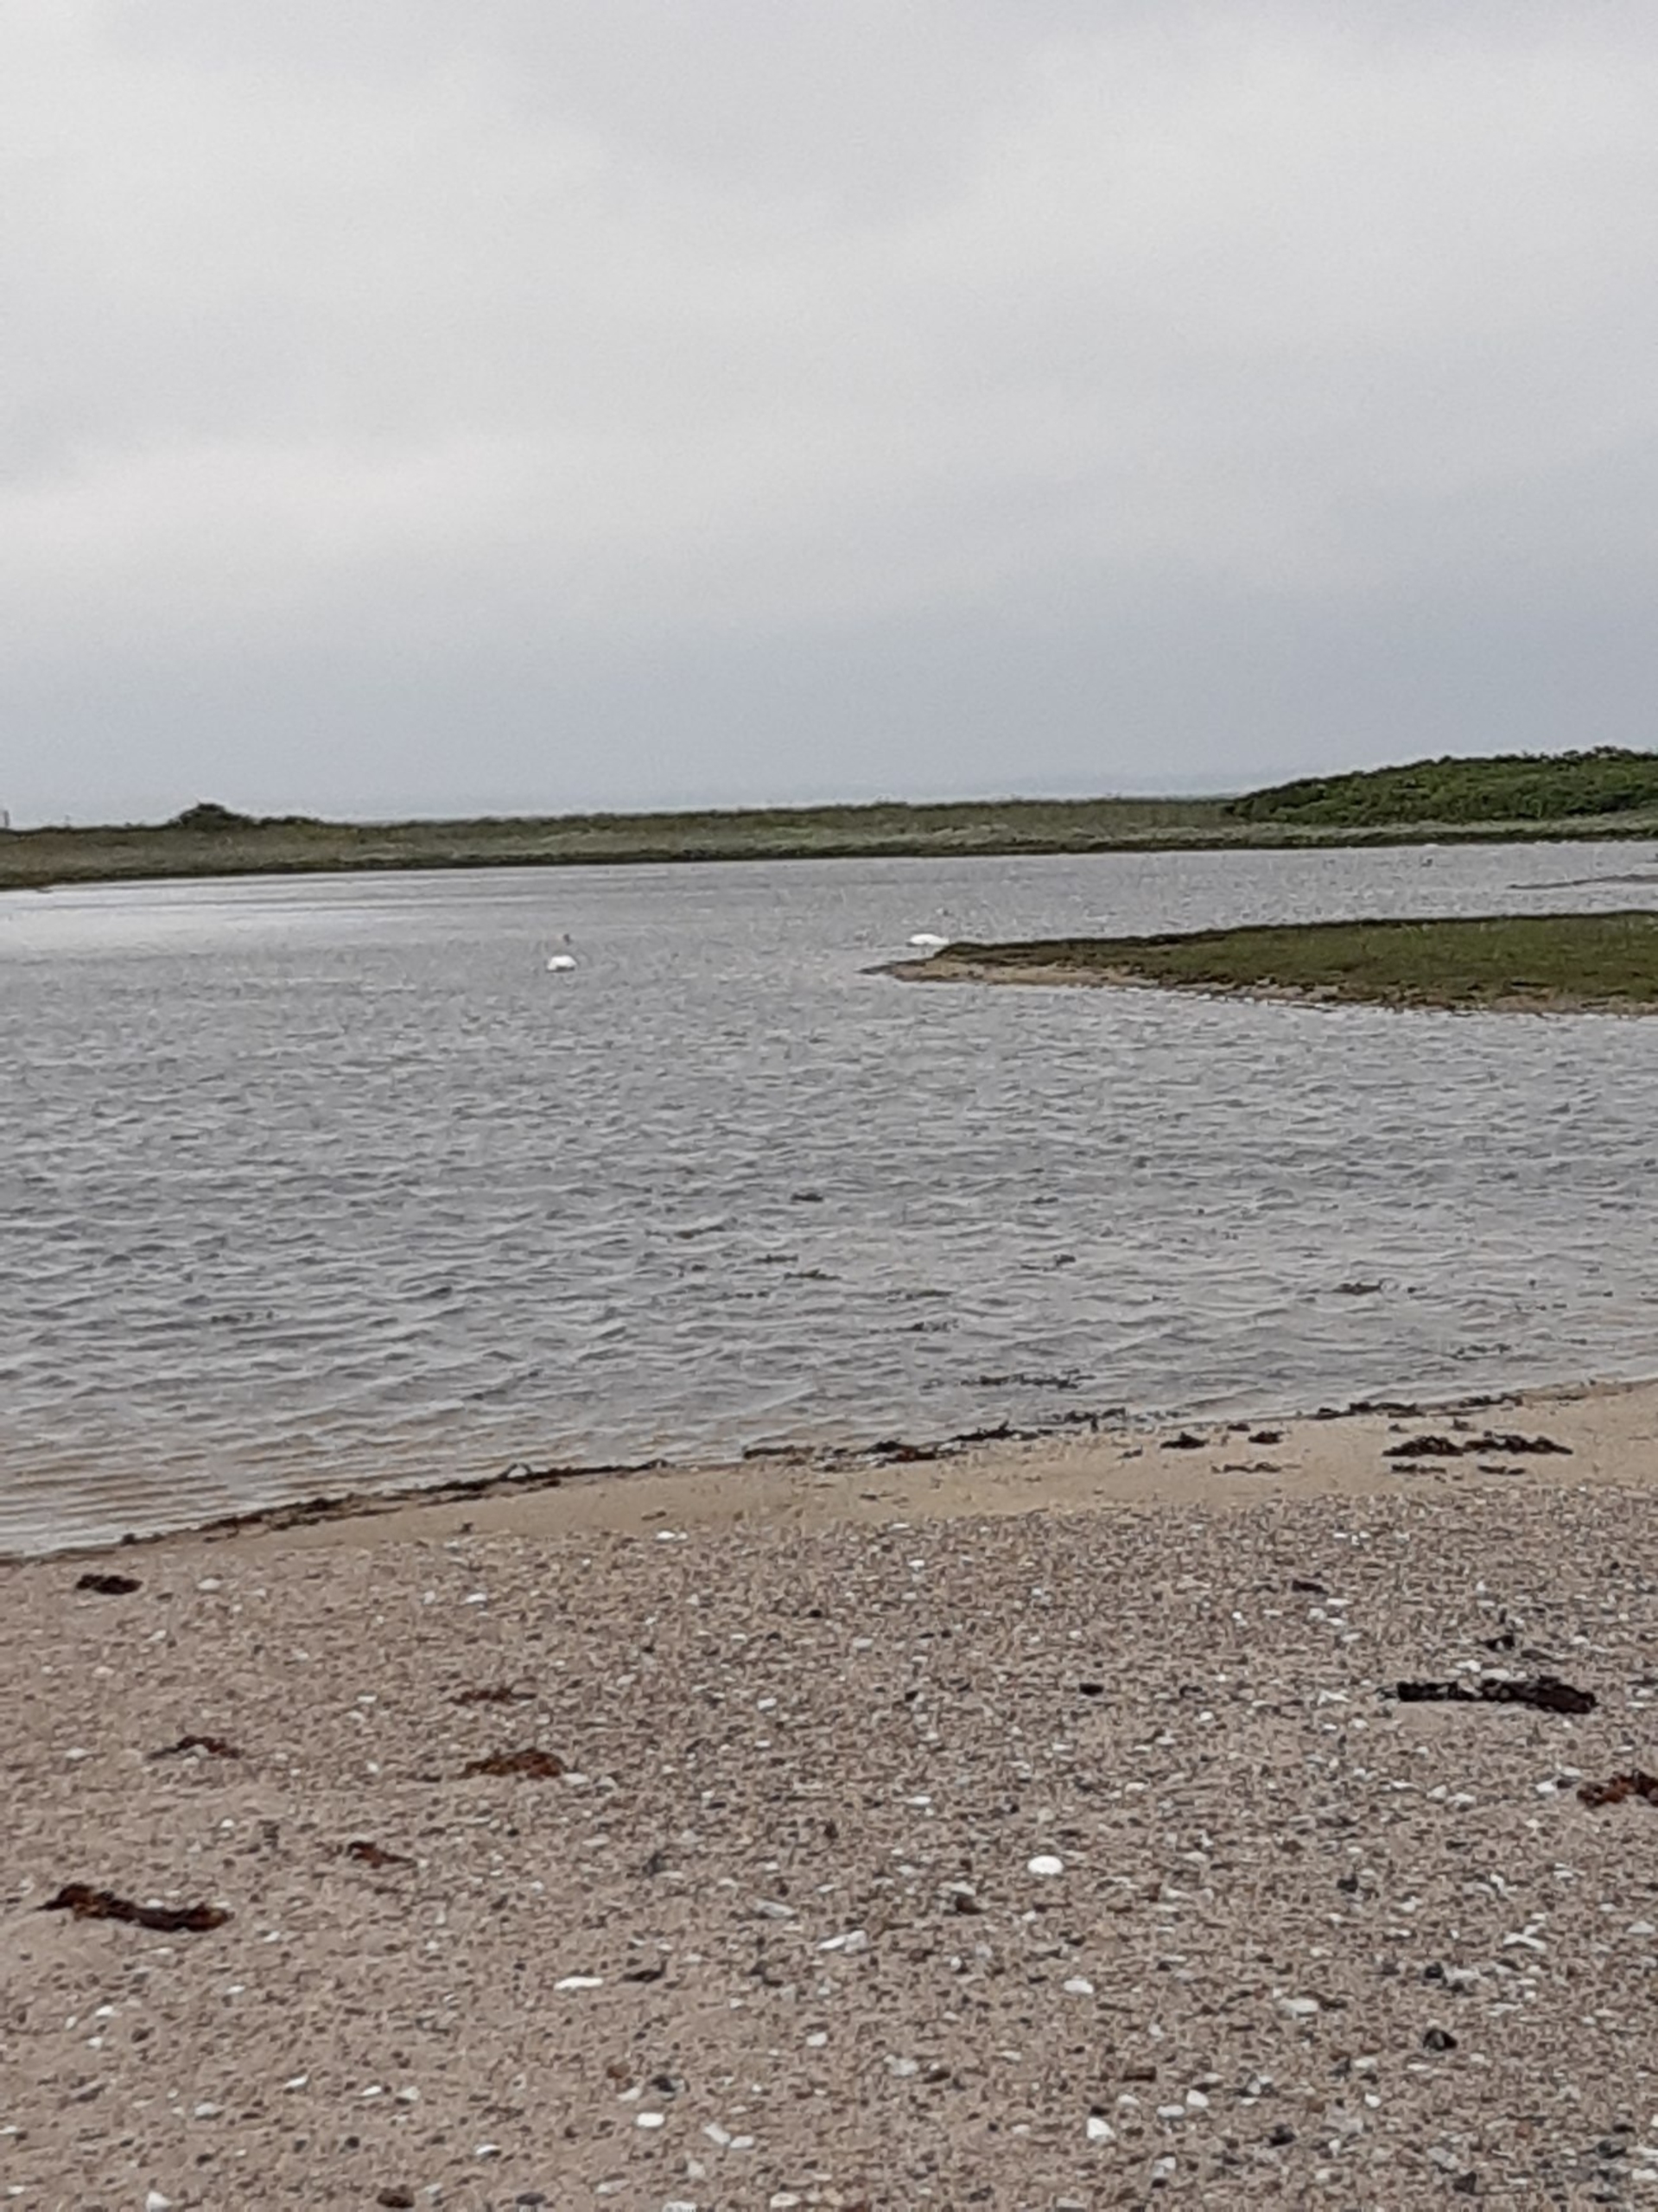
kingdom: Animalia
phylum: Chordata
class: Aves
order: Anseriformes
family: Anatidae
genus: Cygnus
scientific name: Cygnus olor
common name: Knopsvane
